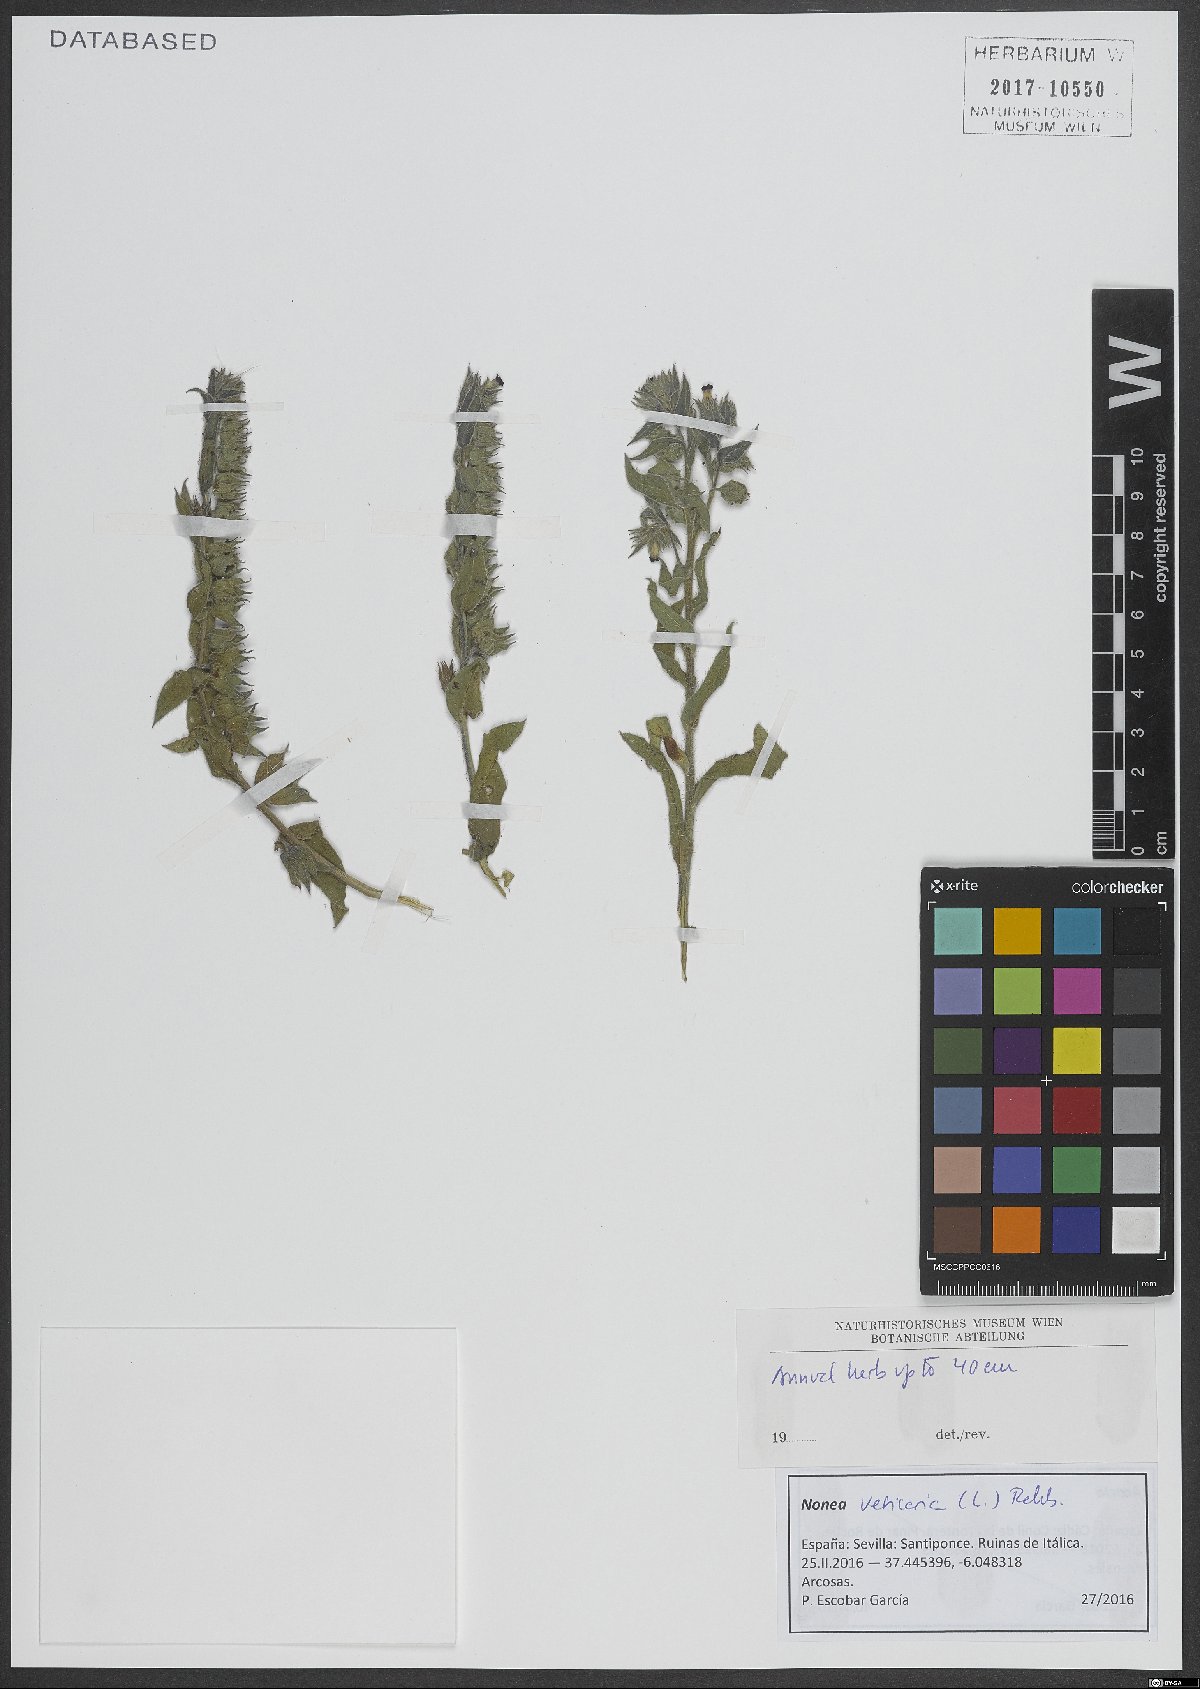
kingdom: Plantae
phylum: Tracheophyta
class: Magnoliopsida
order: Boraginales
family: Boraginaceae
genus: Nonea
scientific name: Nonea vesicaria
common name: Red monkswort
